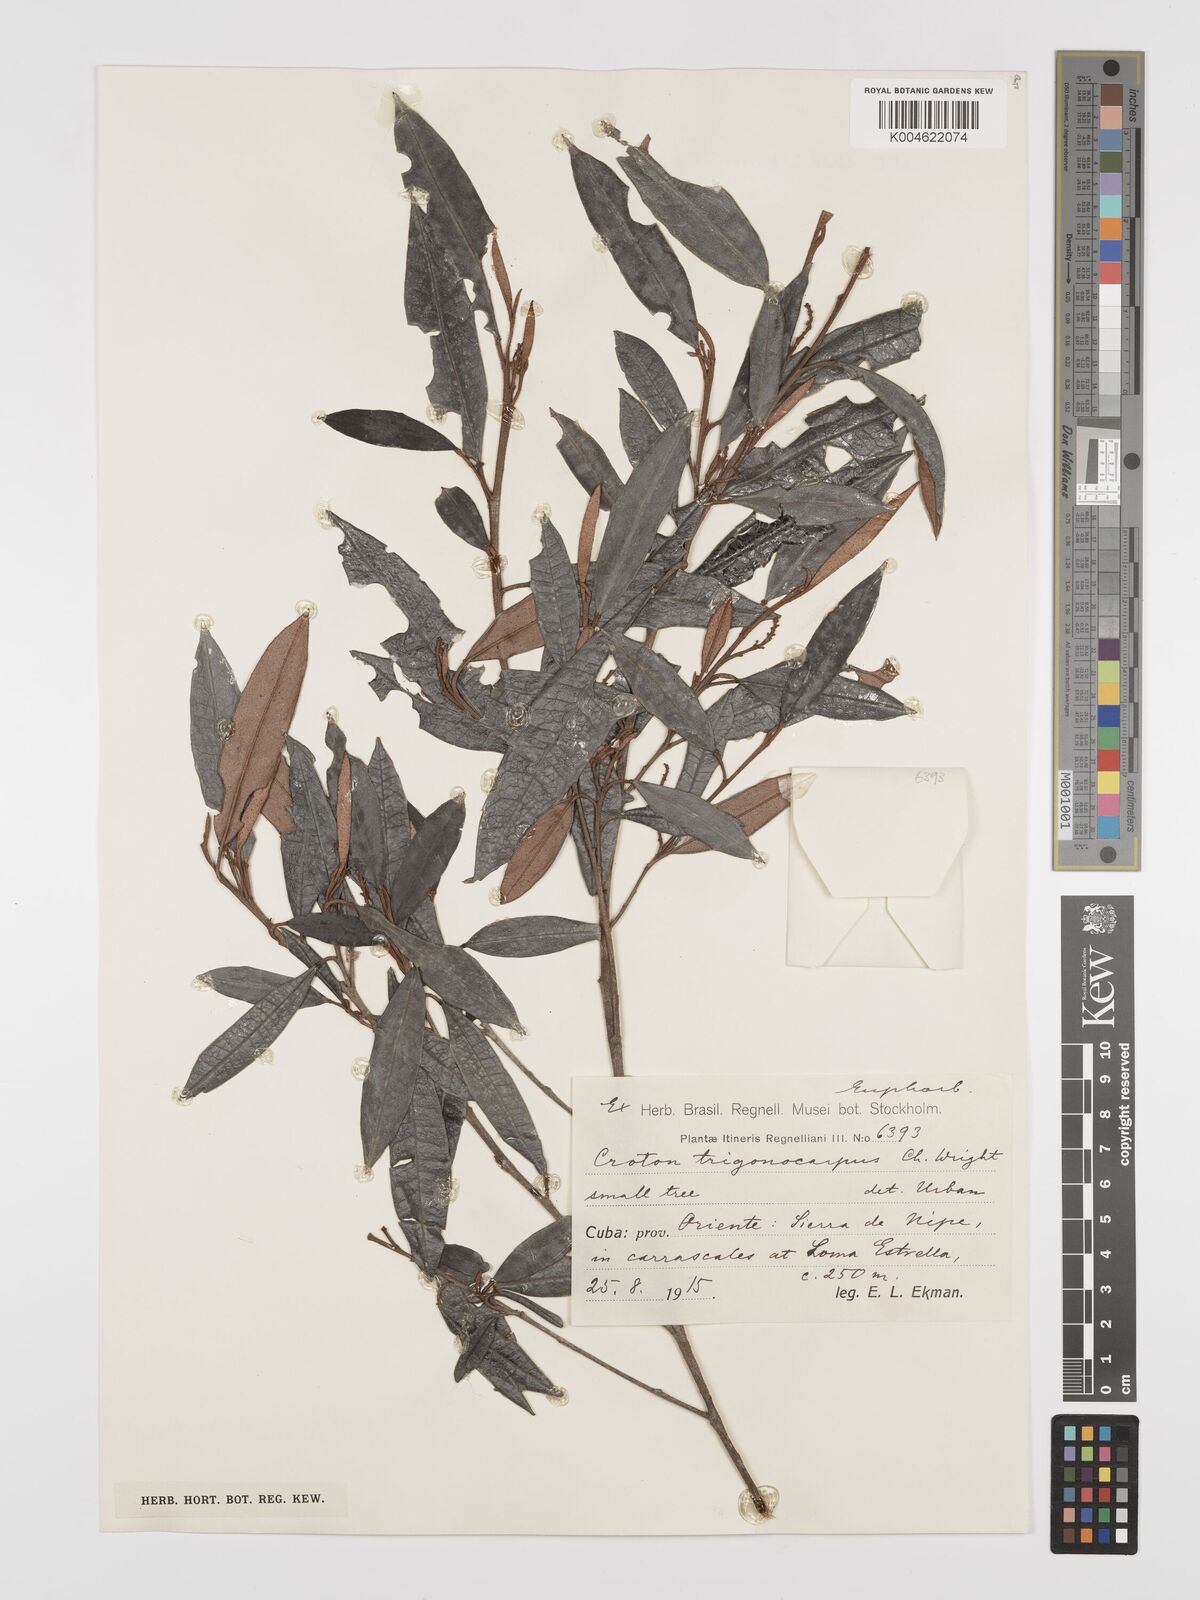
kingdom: Plantae
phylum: Tracheophyta
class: Magnoliopsida
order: Malpighiales
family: Euphorbiaceae
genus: Croton
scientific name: Croton trigonocarpus
